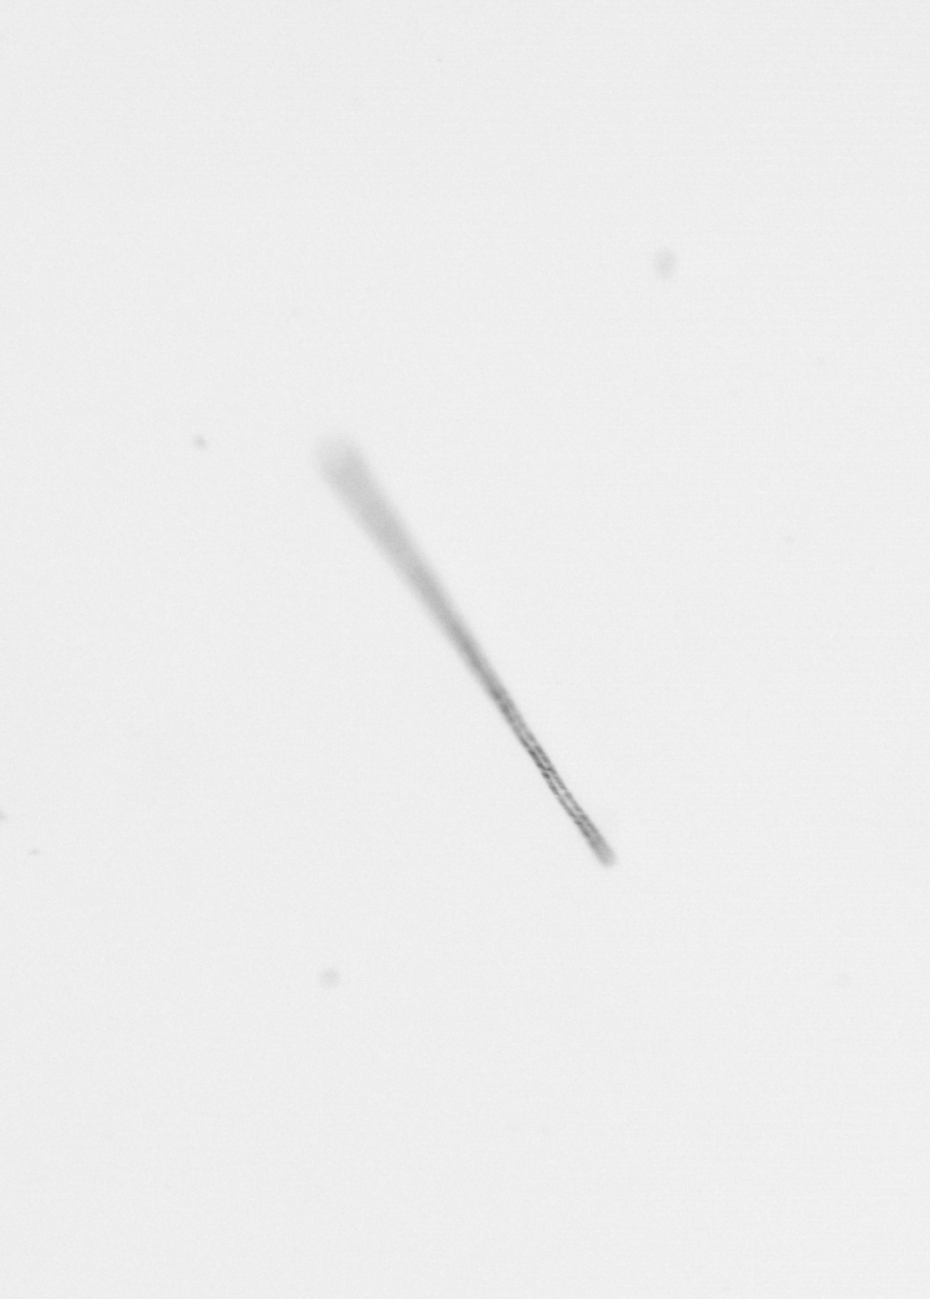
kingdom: Chromista
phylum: Ochrophyta
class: Bacillariophyceae
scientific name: Bacillariophyceae
